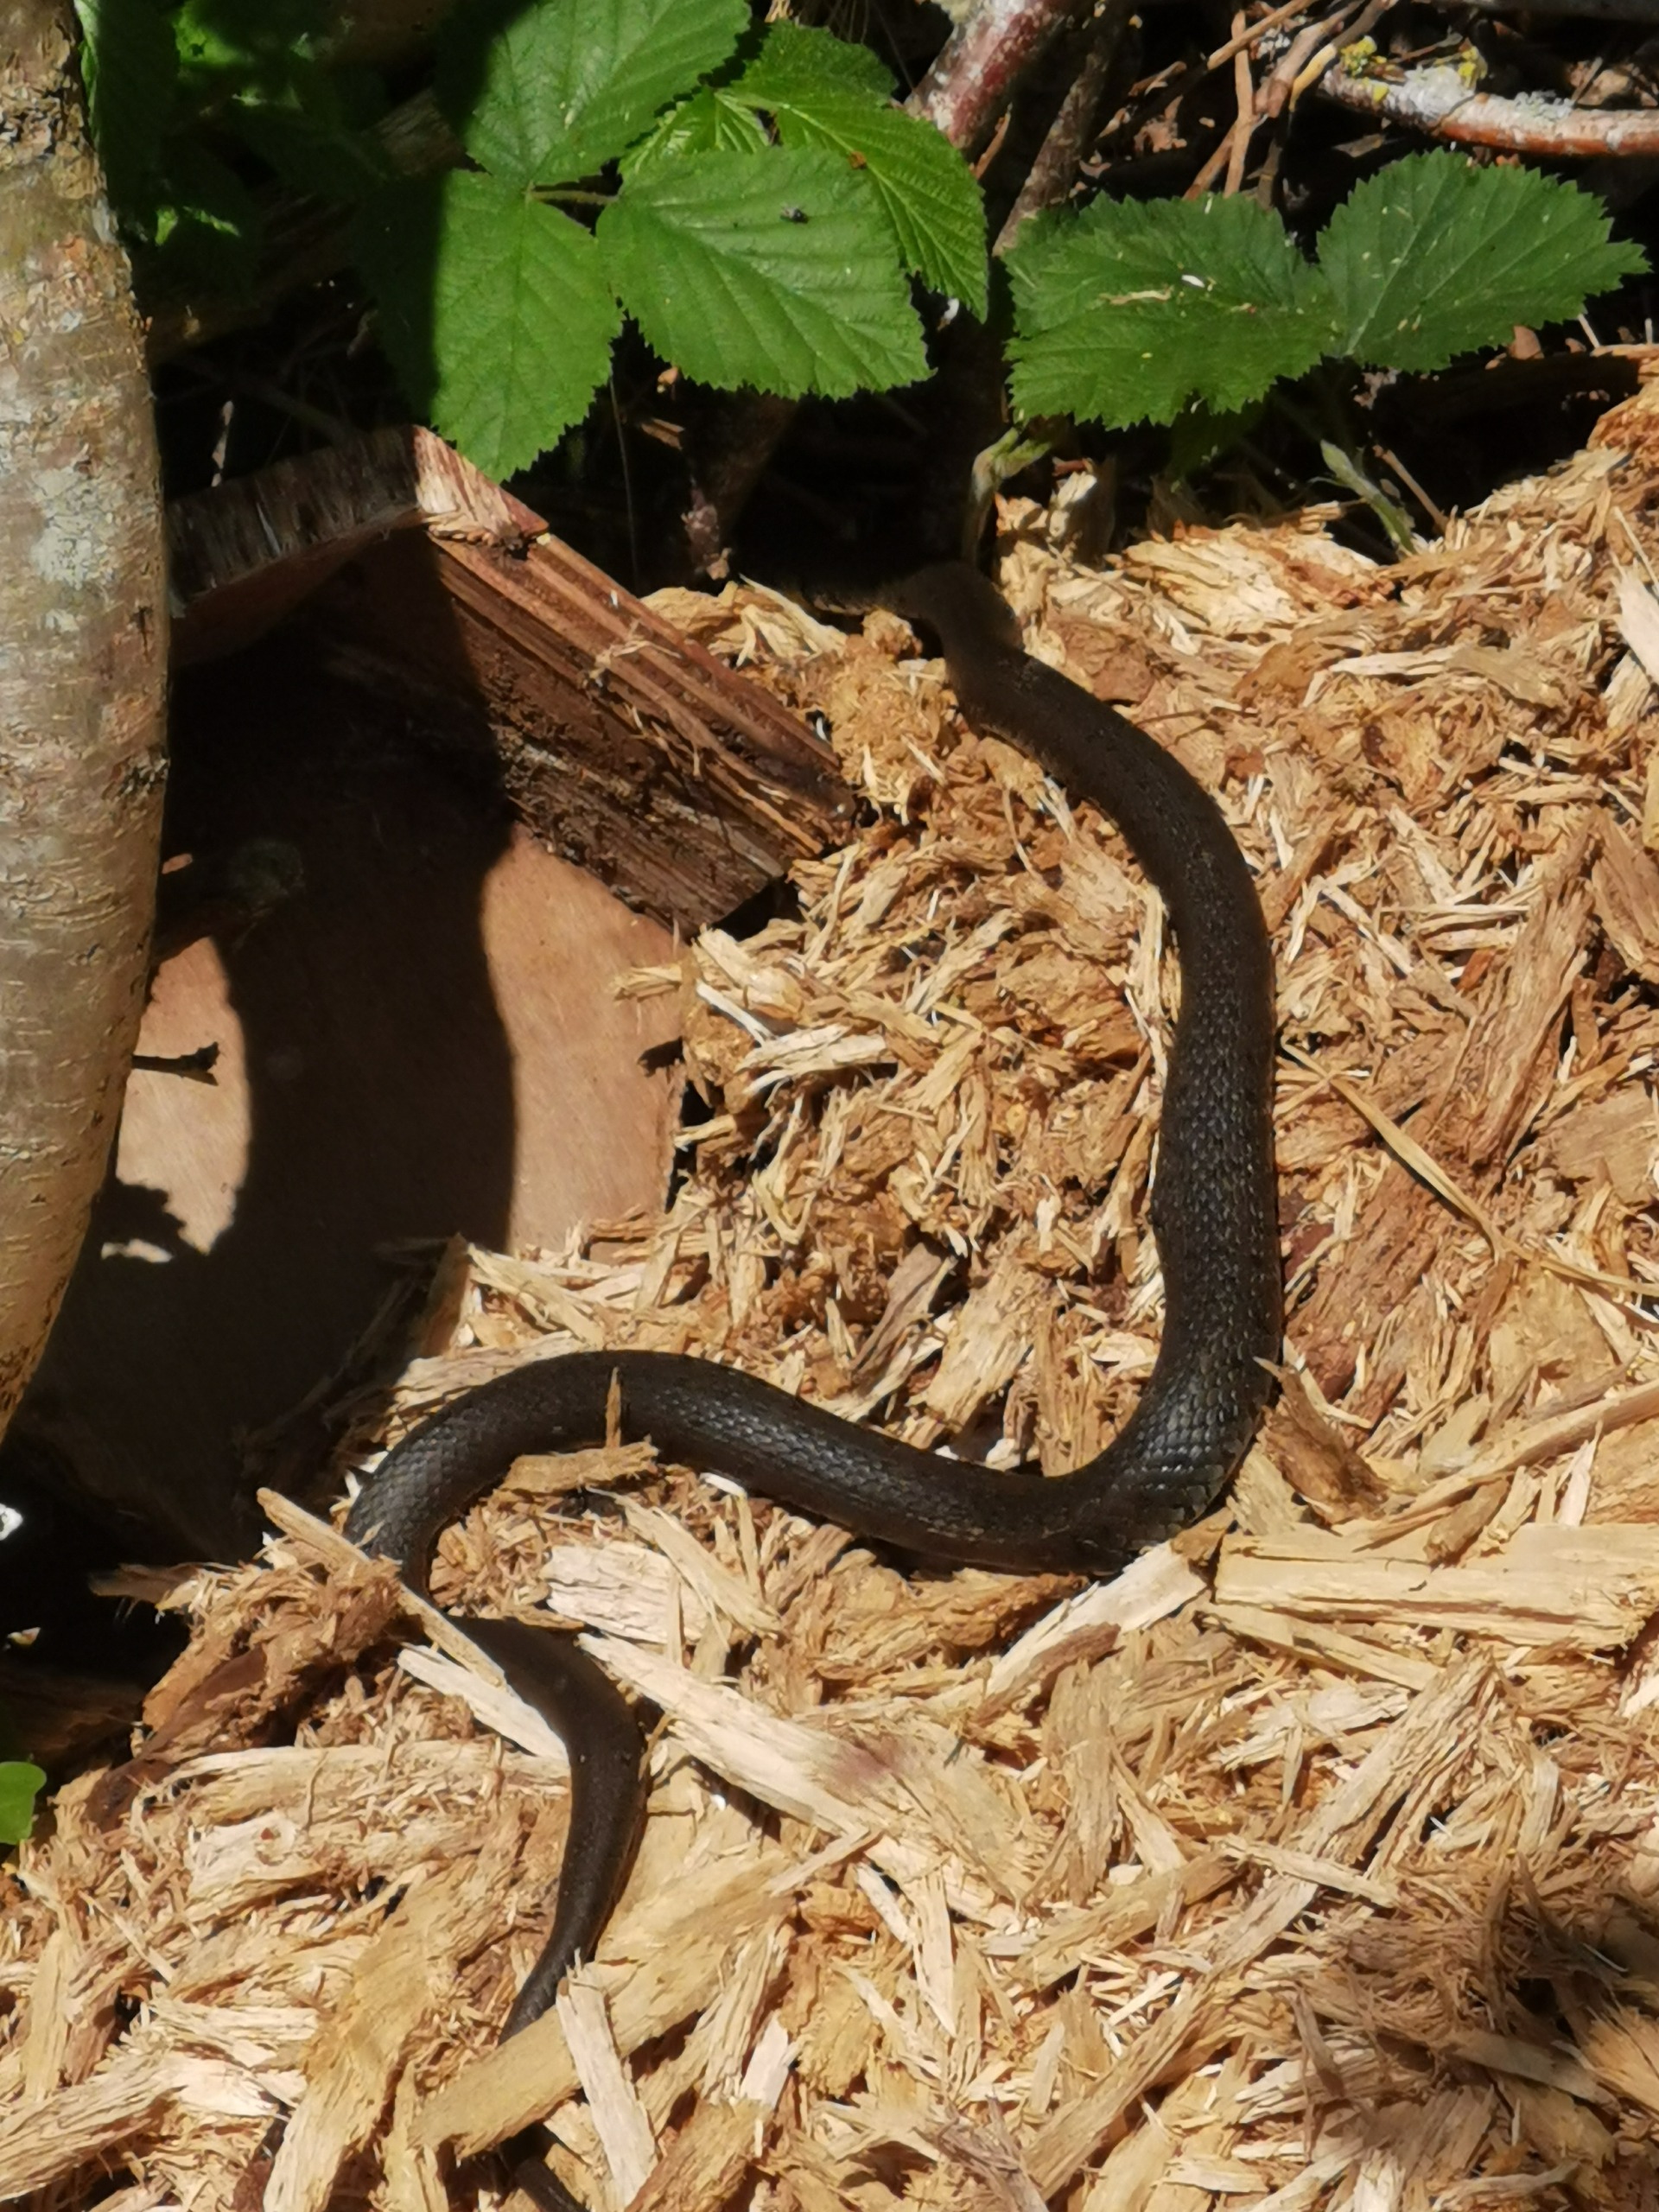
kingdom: Animalia
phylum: Chordata
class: Squamata
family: Colubridae
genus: Natrix
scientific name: Natrix natrix
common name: Snog
